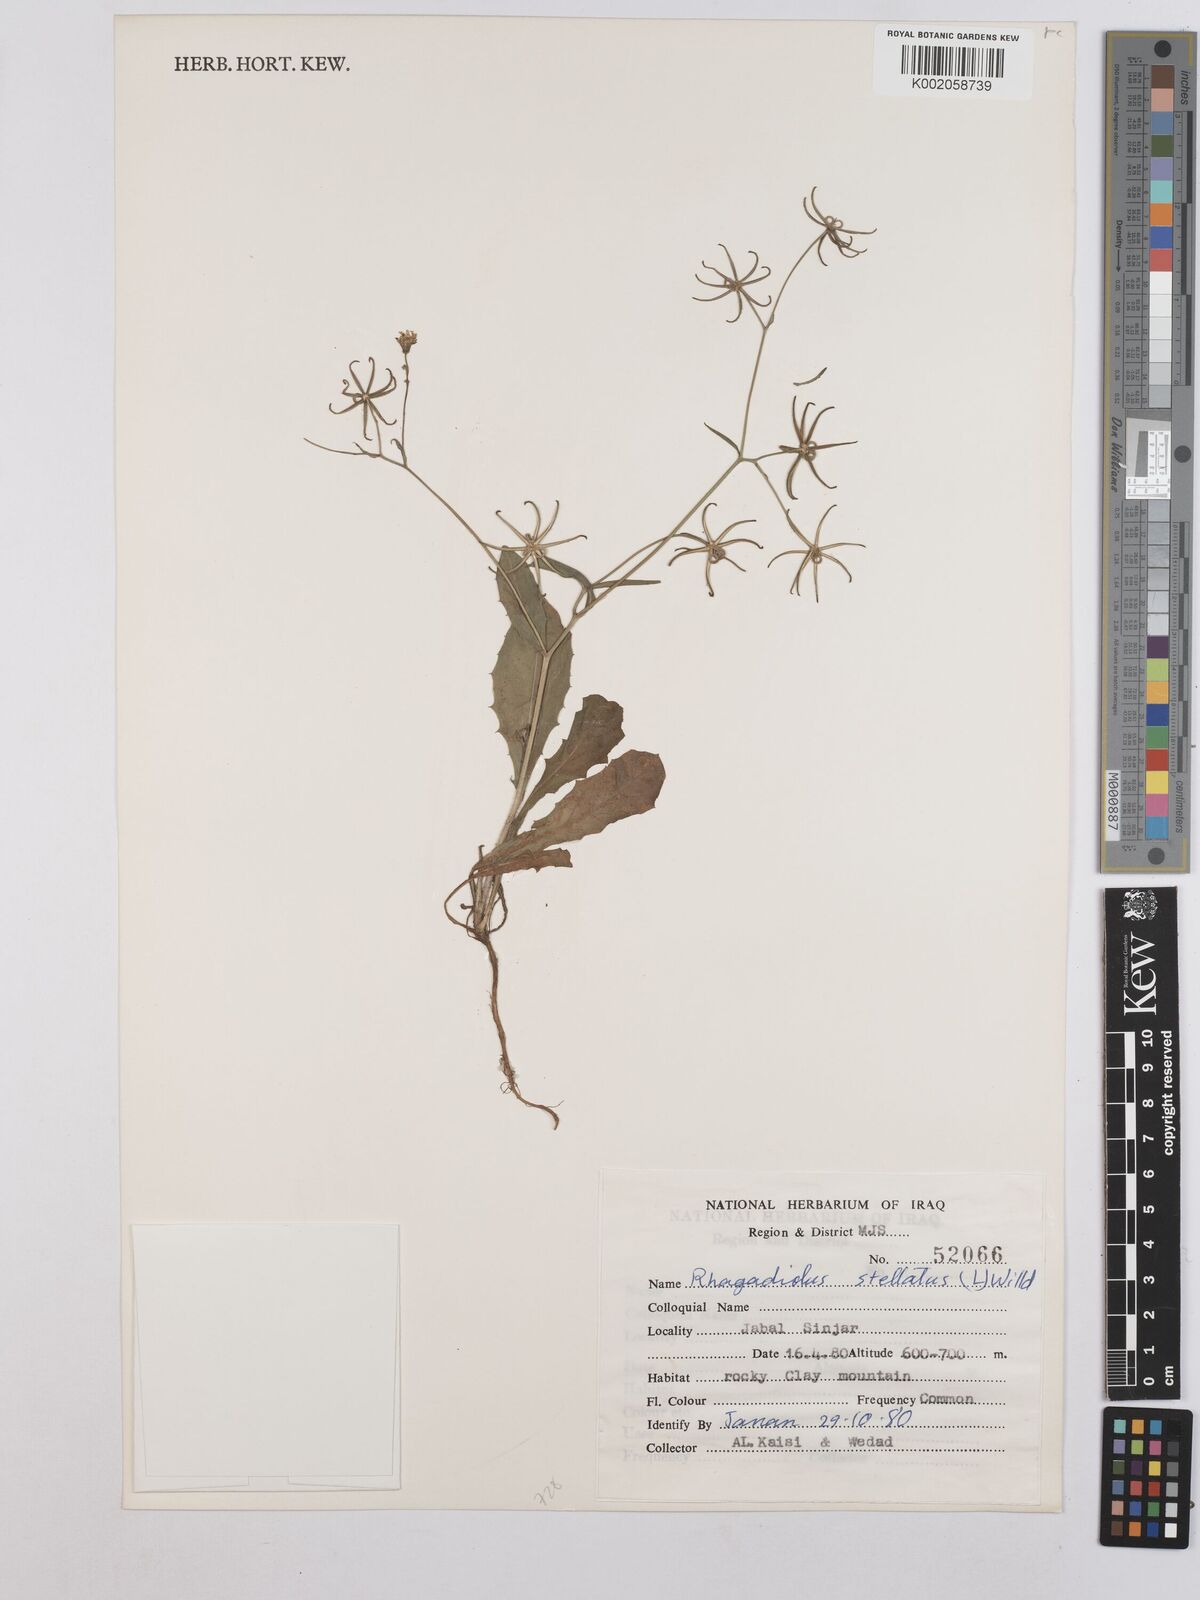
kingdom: Plantae
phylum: Tracheophyta
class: Magnoliopsida
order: Asterales
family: Asteraceae
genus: Rhagadiolus
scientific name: Rhagadiolus stellatus
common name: Star hawkbit
